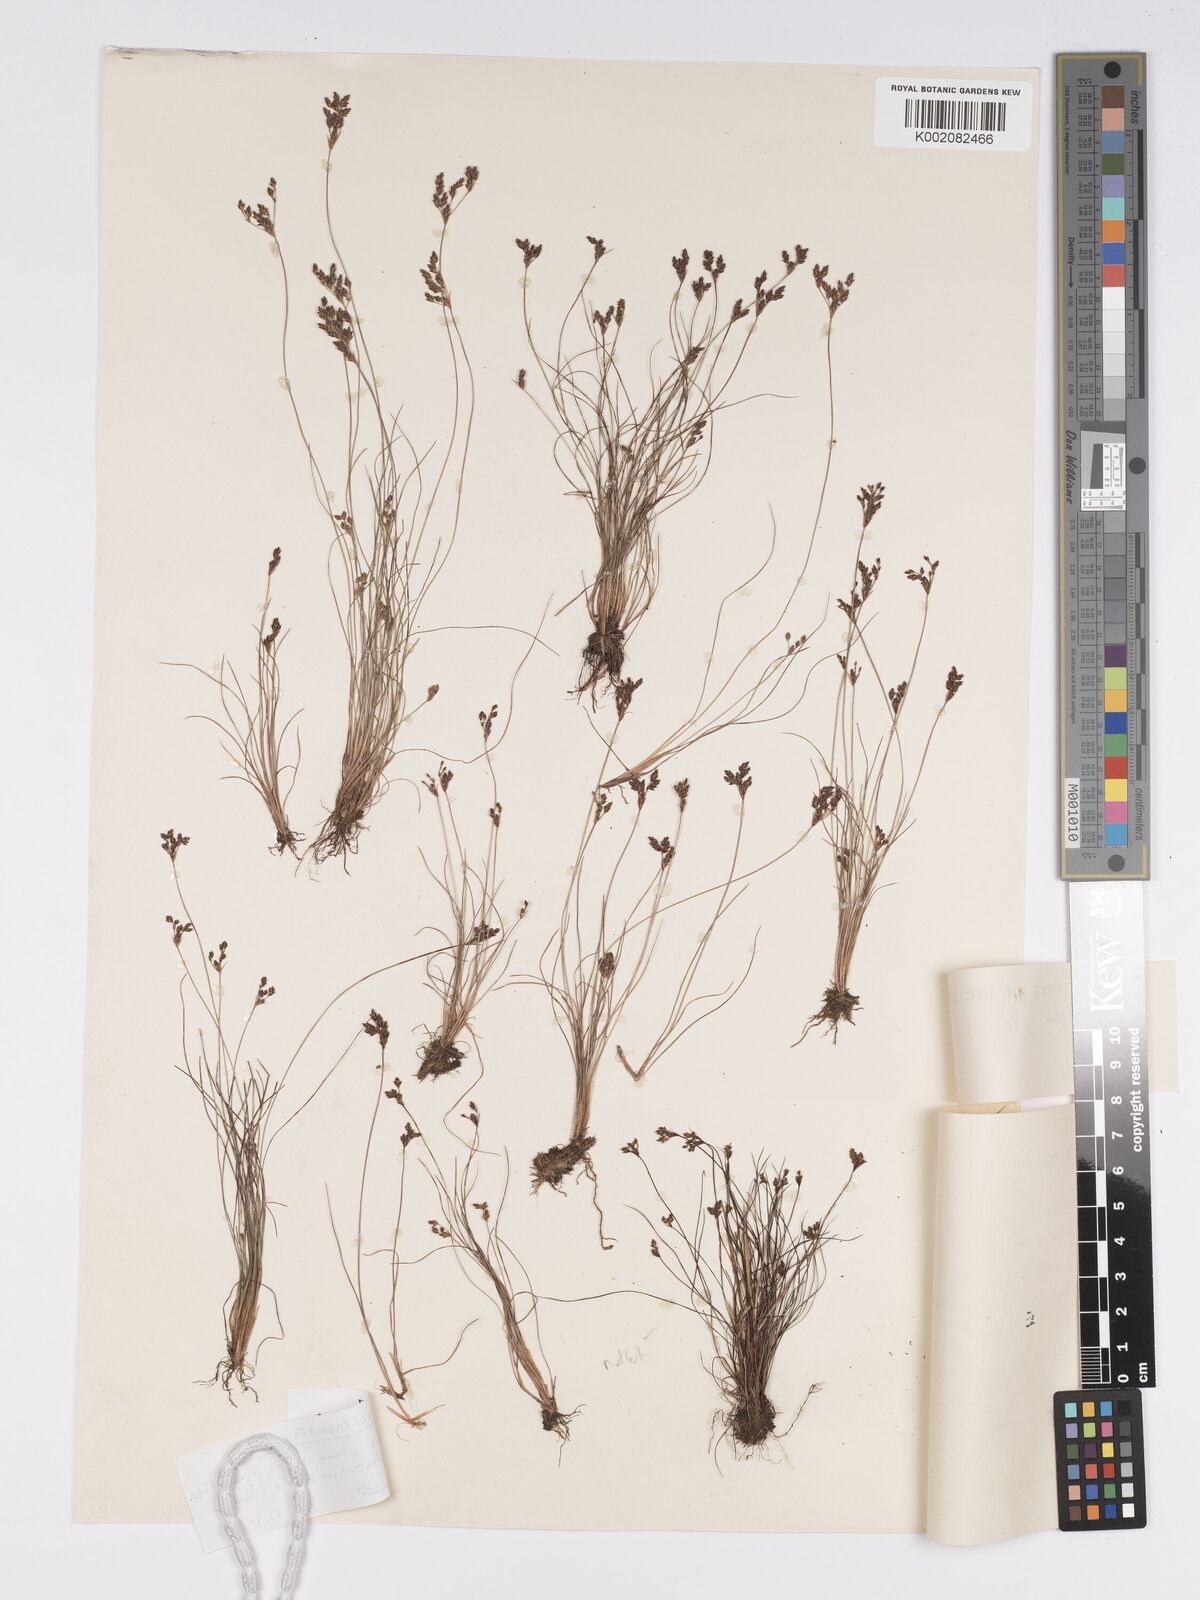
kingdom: Plantae
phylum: Tracheophyta
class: Liliopsida
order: Poales
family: Cyperaceae
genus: Bulbostylis
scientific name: Bulbostylis densa
